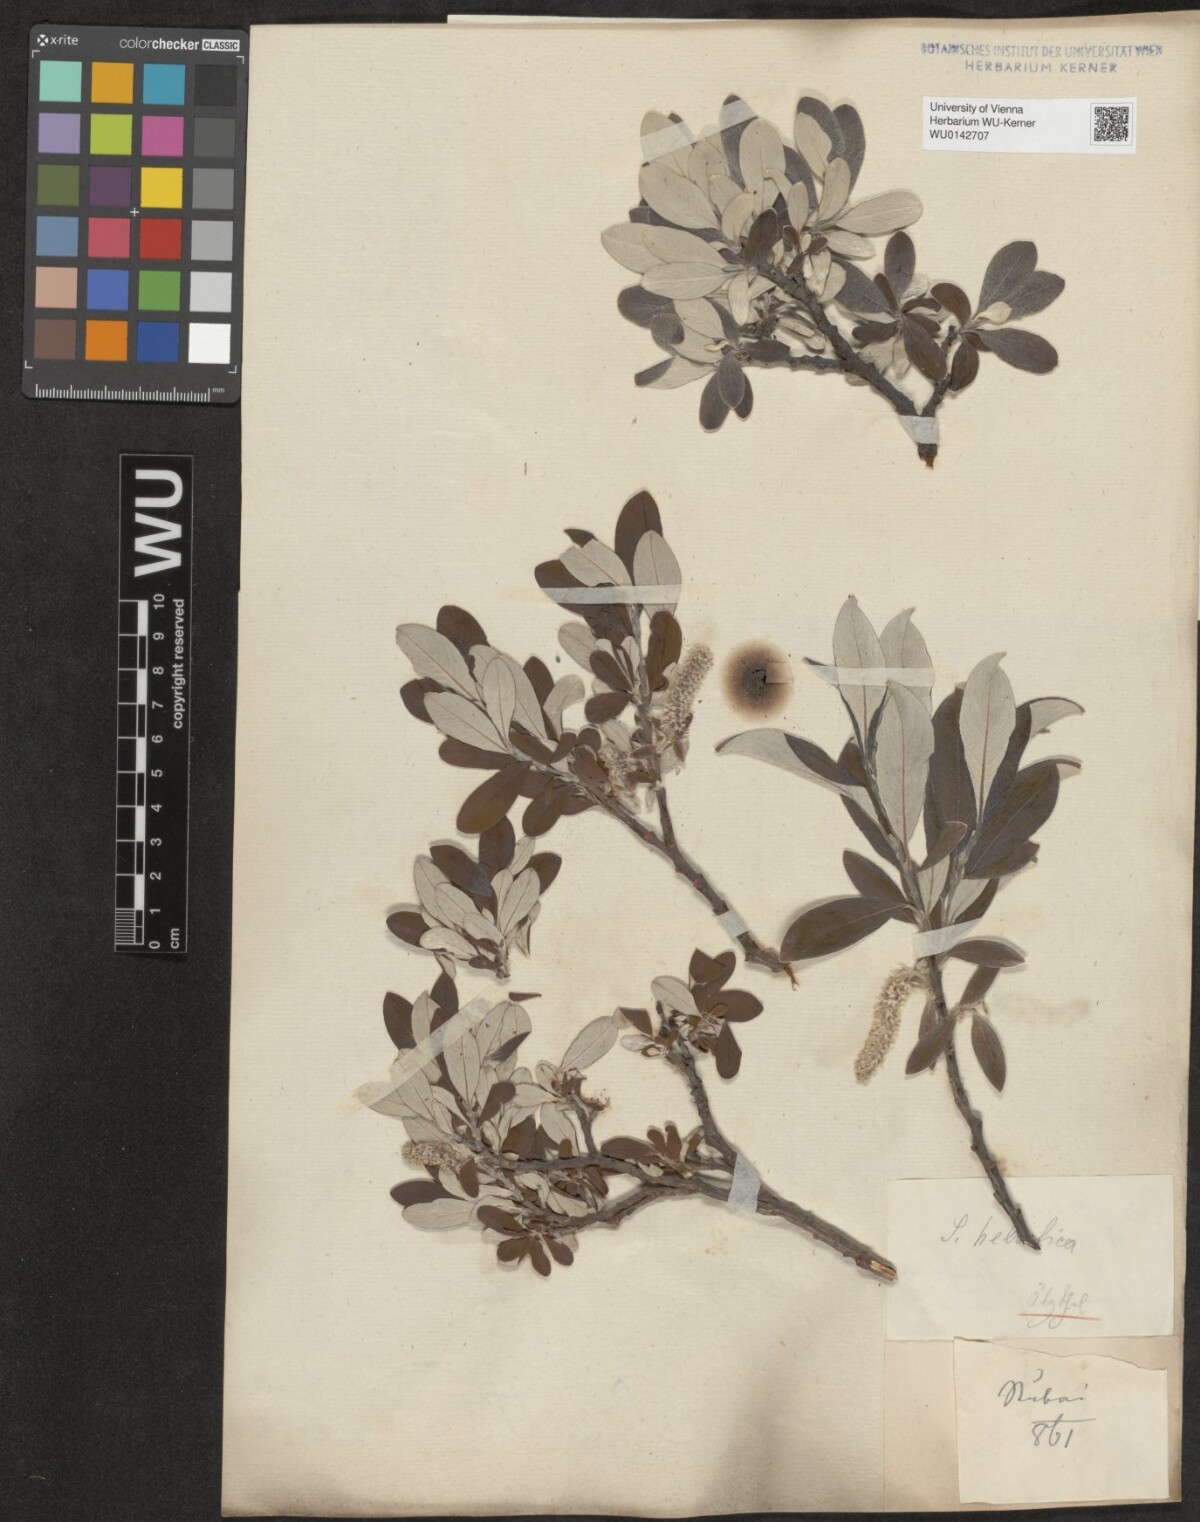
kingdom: Plantae
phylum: Tracheophyta
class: Magnoliopsida
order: Malpighiales
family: Salicaceae
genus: Salix
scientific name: Salix helvetica
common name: Swiss willow
